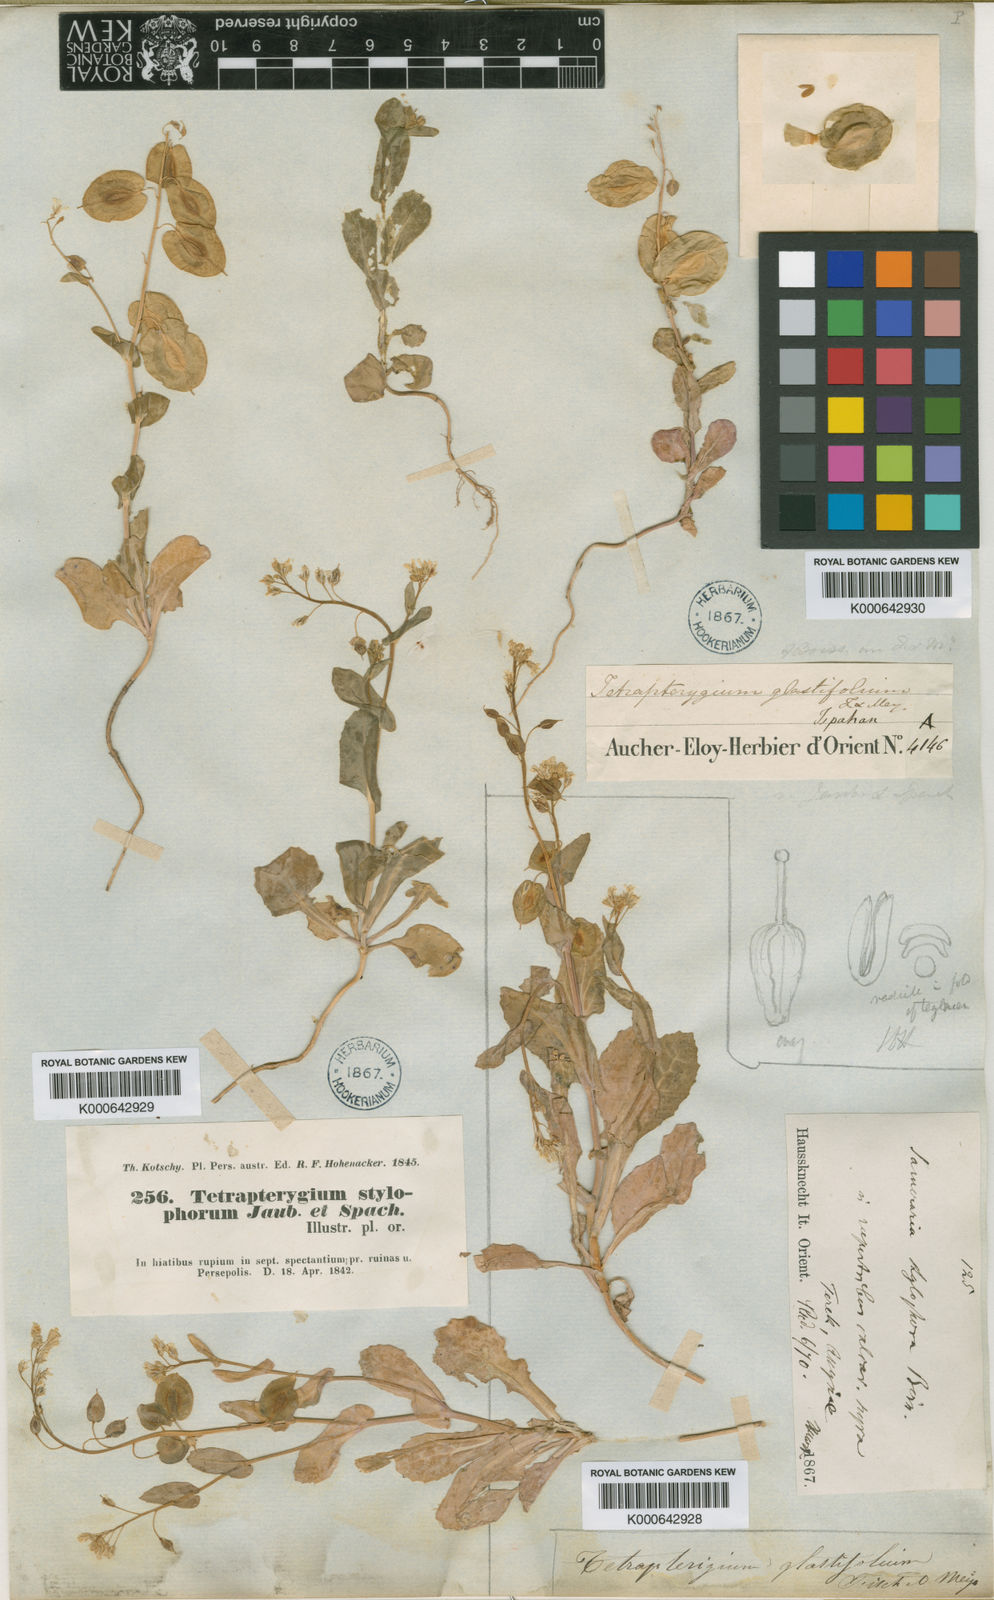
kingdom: Plantae
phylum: Tracheophyta
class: Magnoliopsida
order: Brassicales
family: Brassicaceae
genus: Isatis
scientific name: Isatis stylophora
